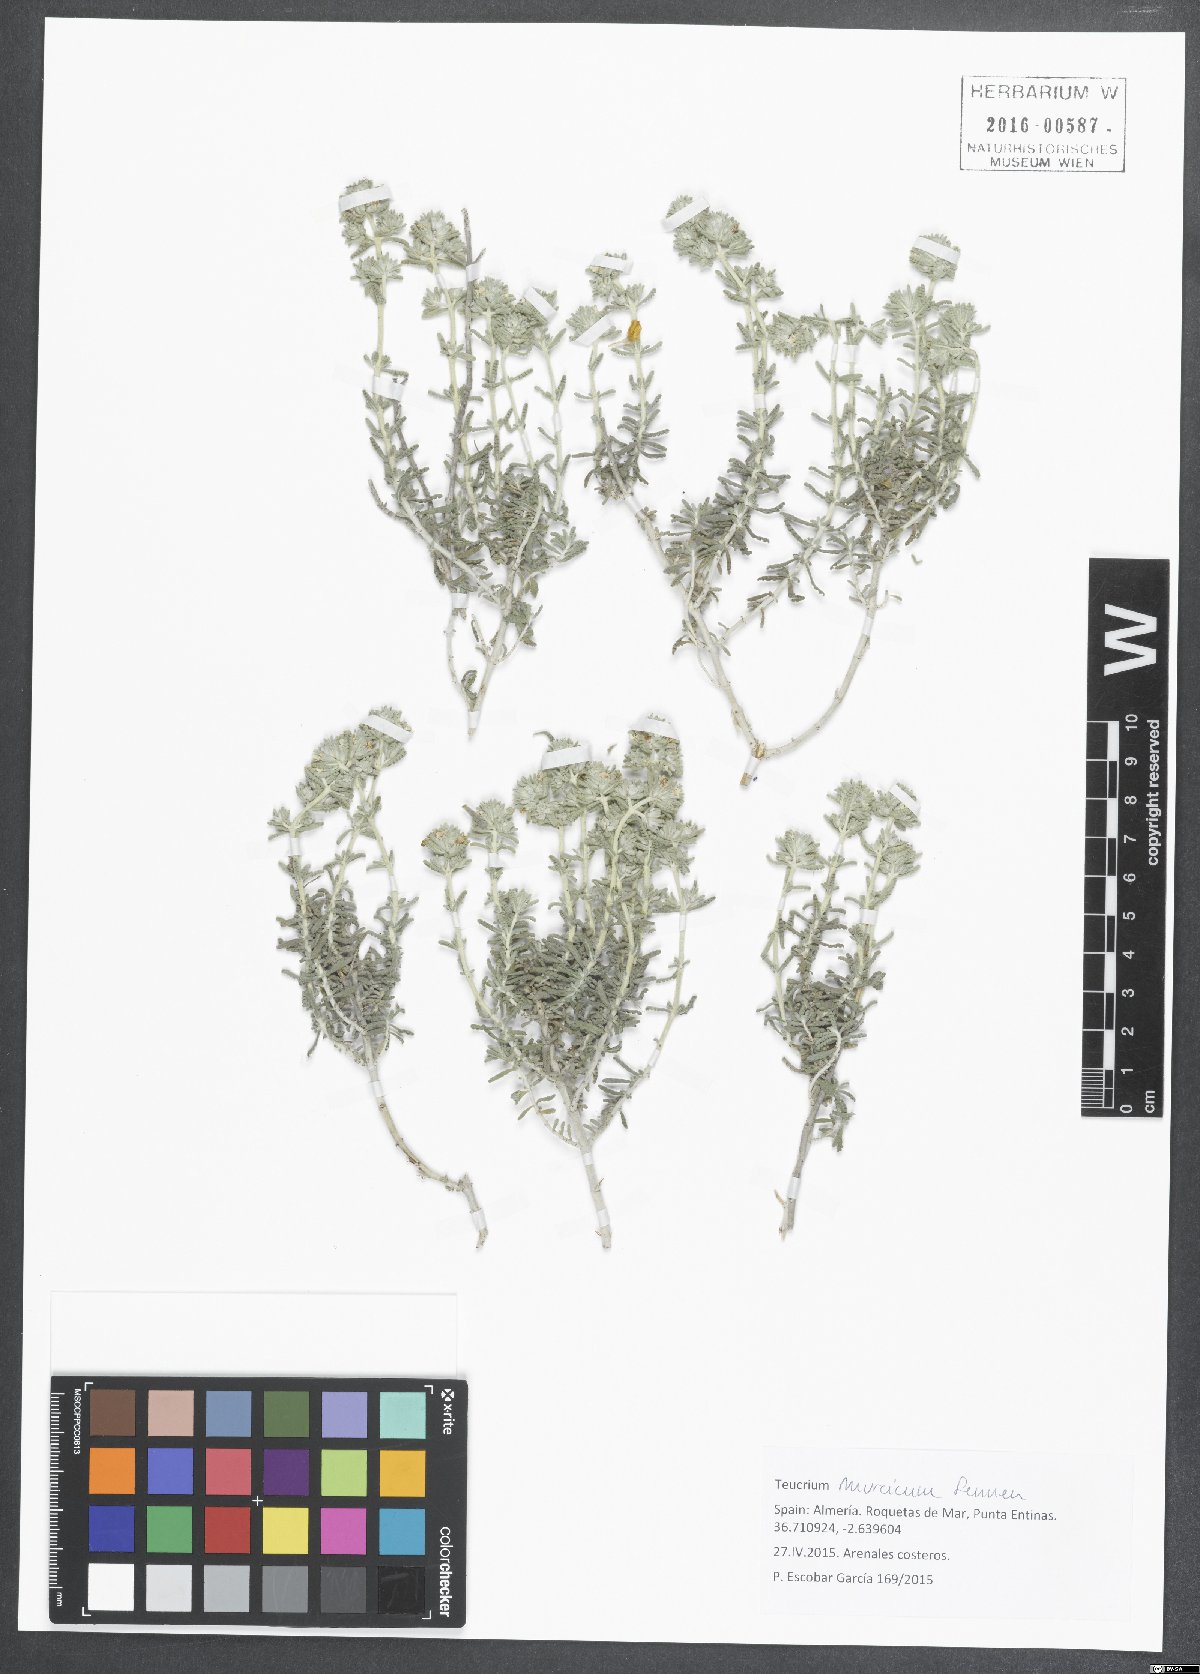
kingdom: Plantae
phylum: Tracheophyta
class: Magnoliopsida
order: Lamiales
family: Lamiaceae
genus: Teucrium
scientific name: Teucrium murcicum
